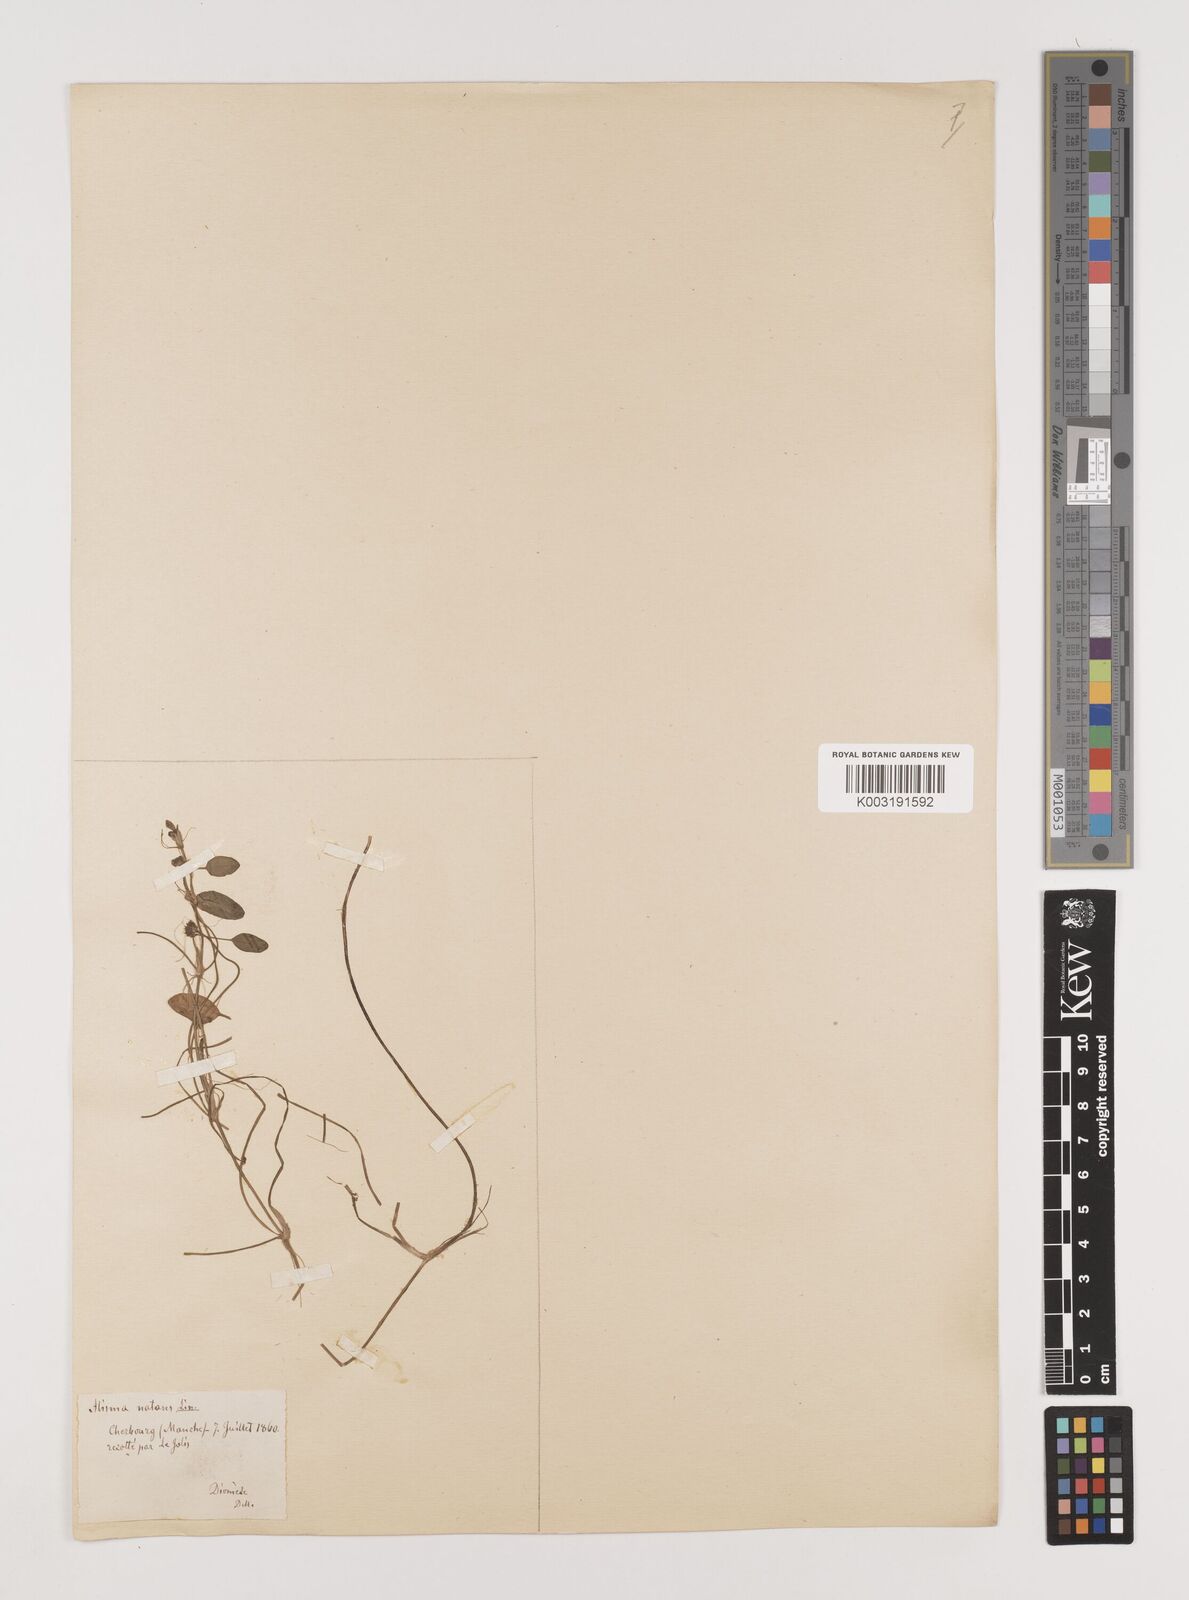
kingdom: Plantae
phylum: Tracheophyta
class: Liliopsida
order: Alismatales
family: Alismataceae
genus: Luronium
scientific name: Luronium natans
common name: Floating water-plantain
